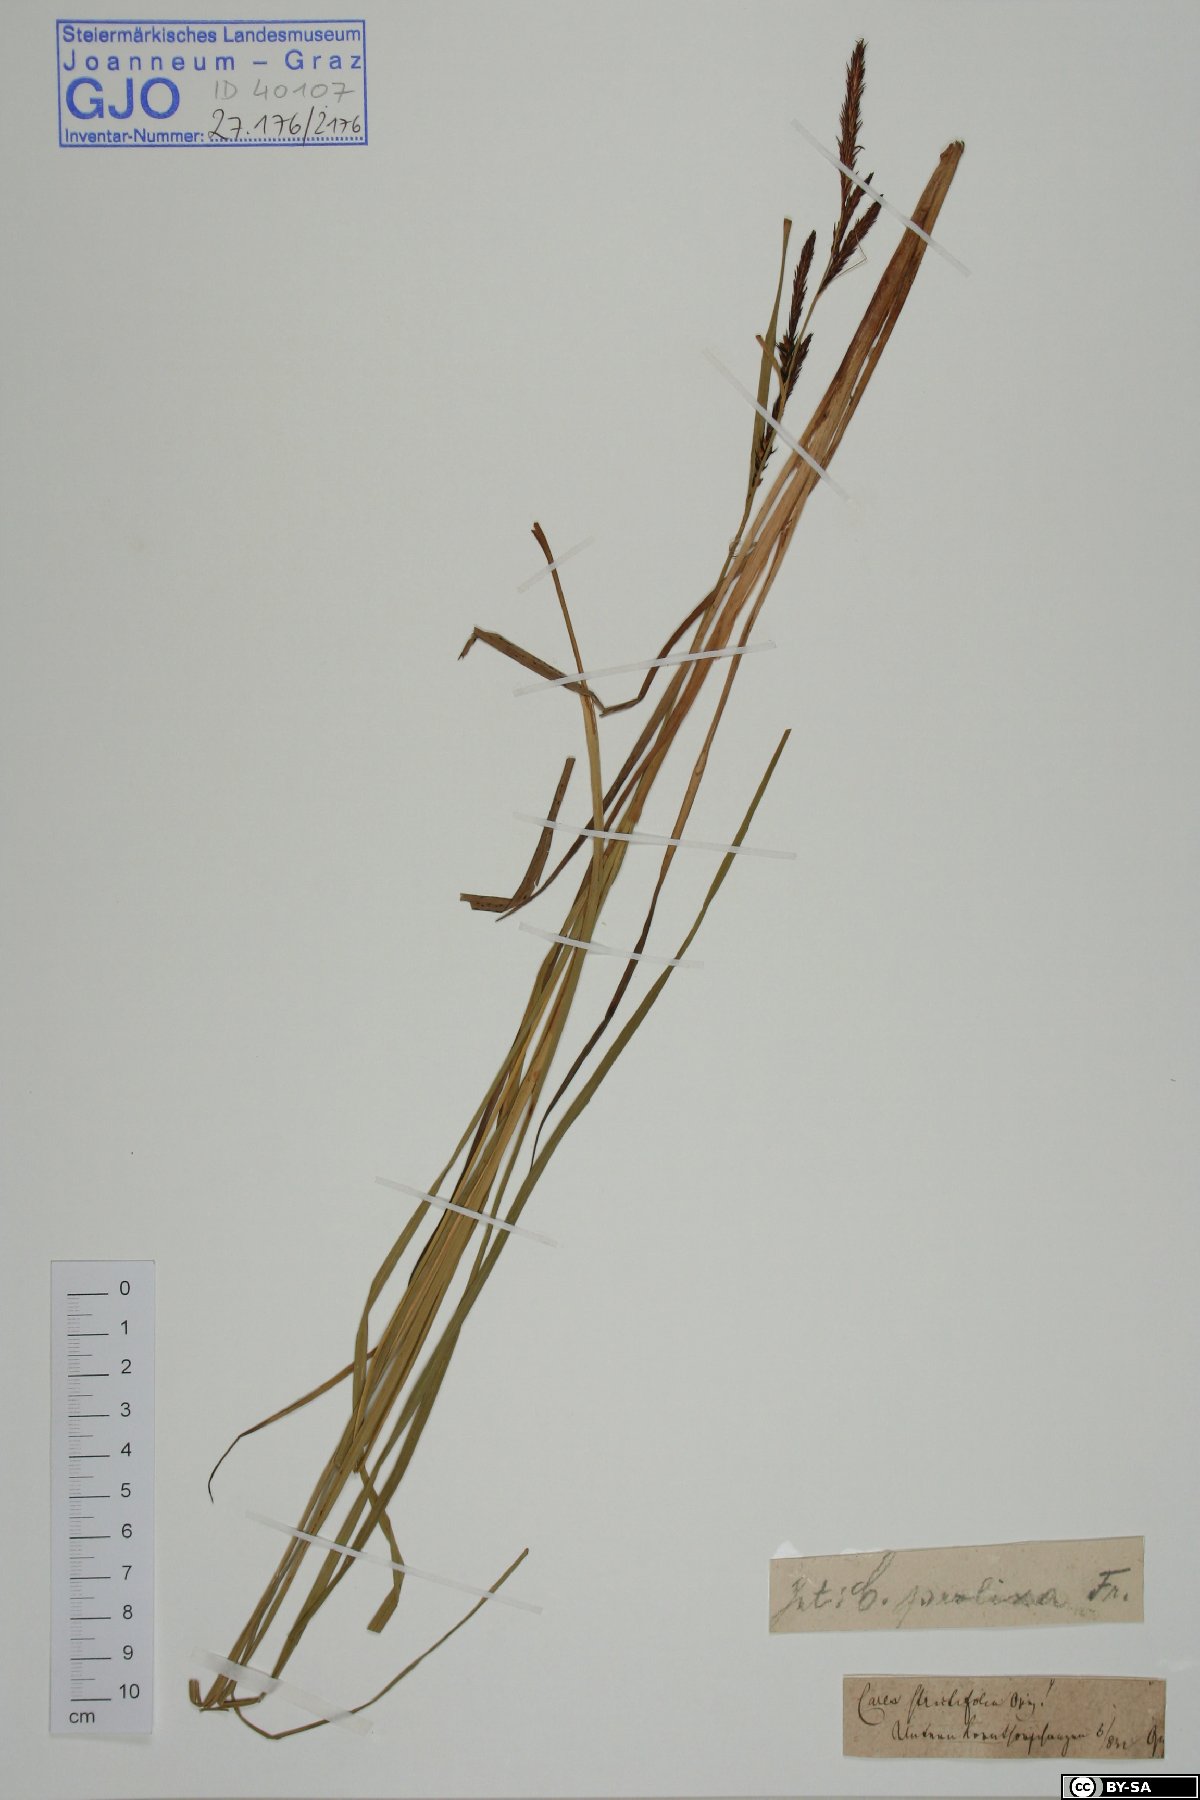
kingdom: Plantae
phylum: Tracheophyta
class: Liliopsida
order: Poales
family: Cyperaceae
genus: Carex
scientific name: Carex strictifolia
